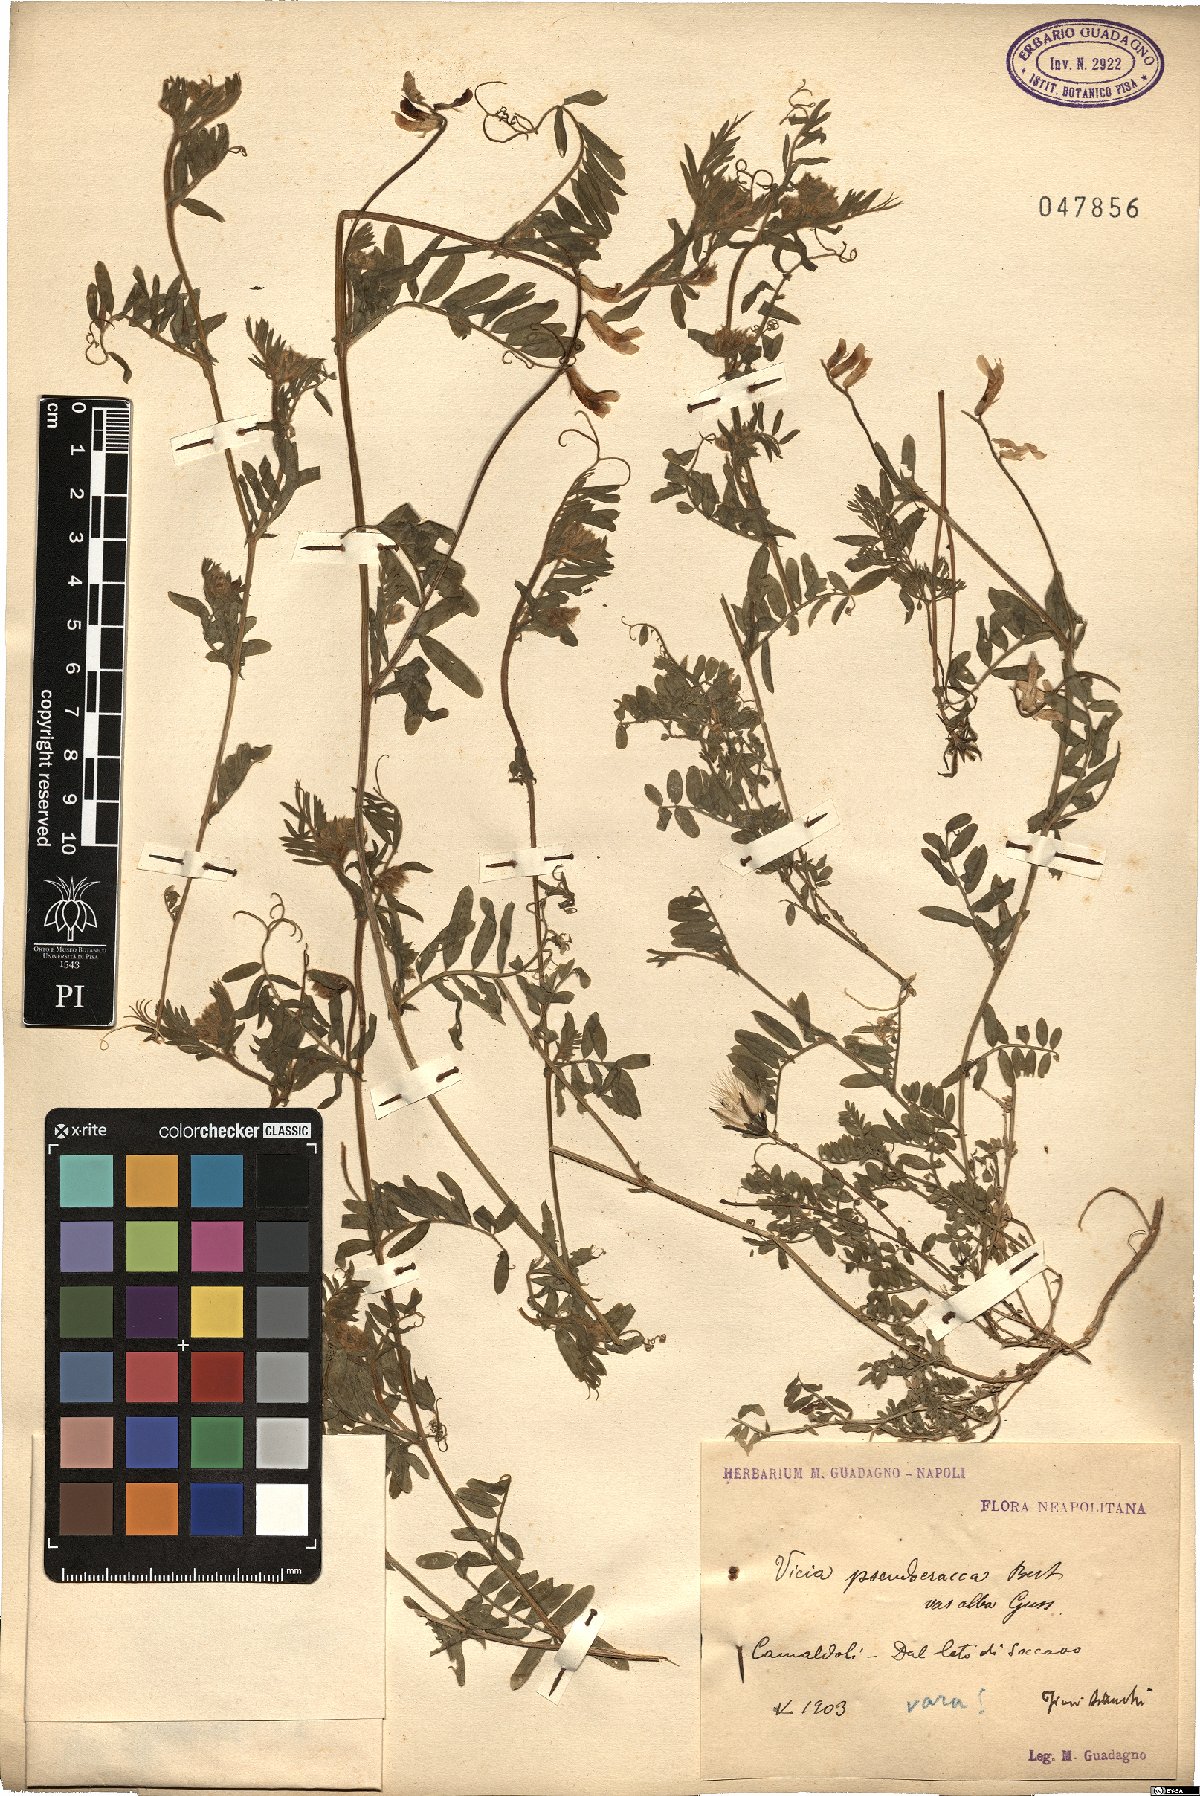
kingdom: Plantae
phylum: Tracheophyta
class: Magnoliopsida
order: Fabales
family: Fabaceae
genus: Vicia
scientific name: Vicia
